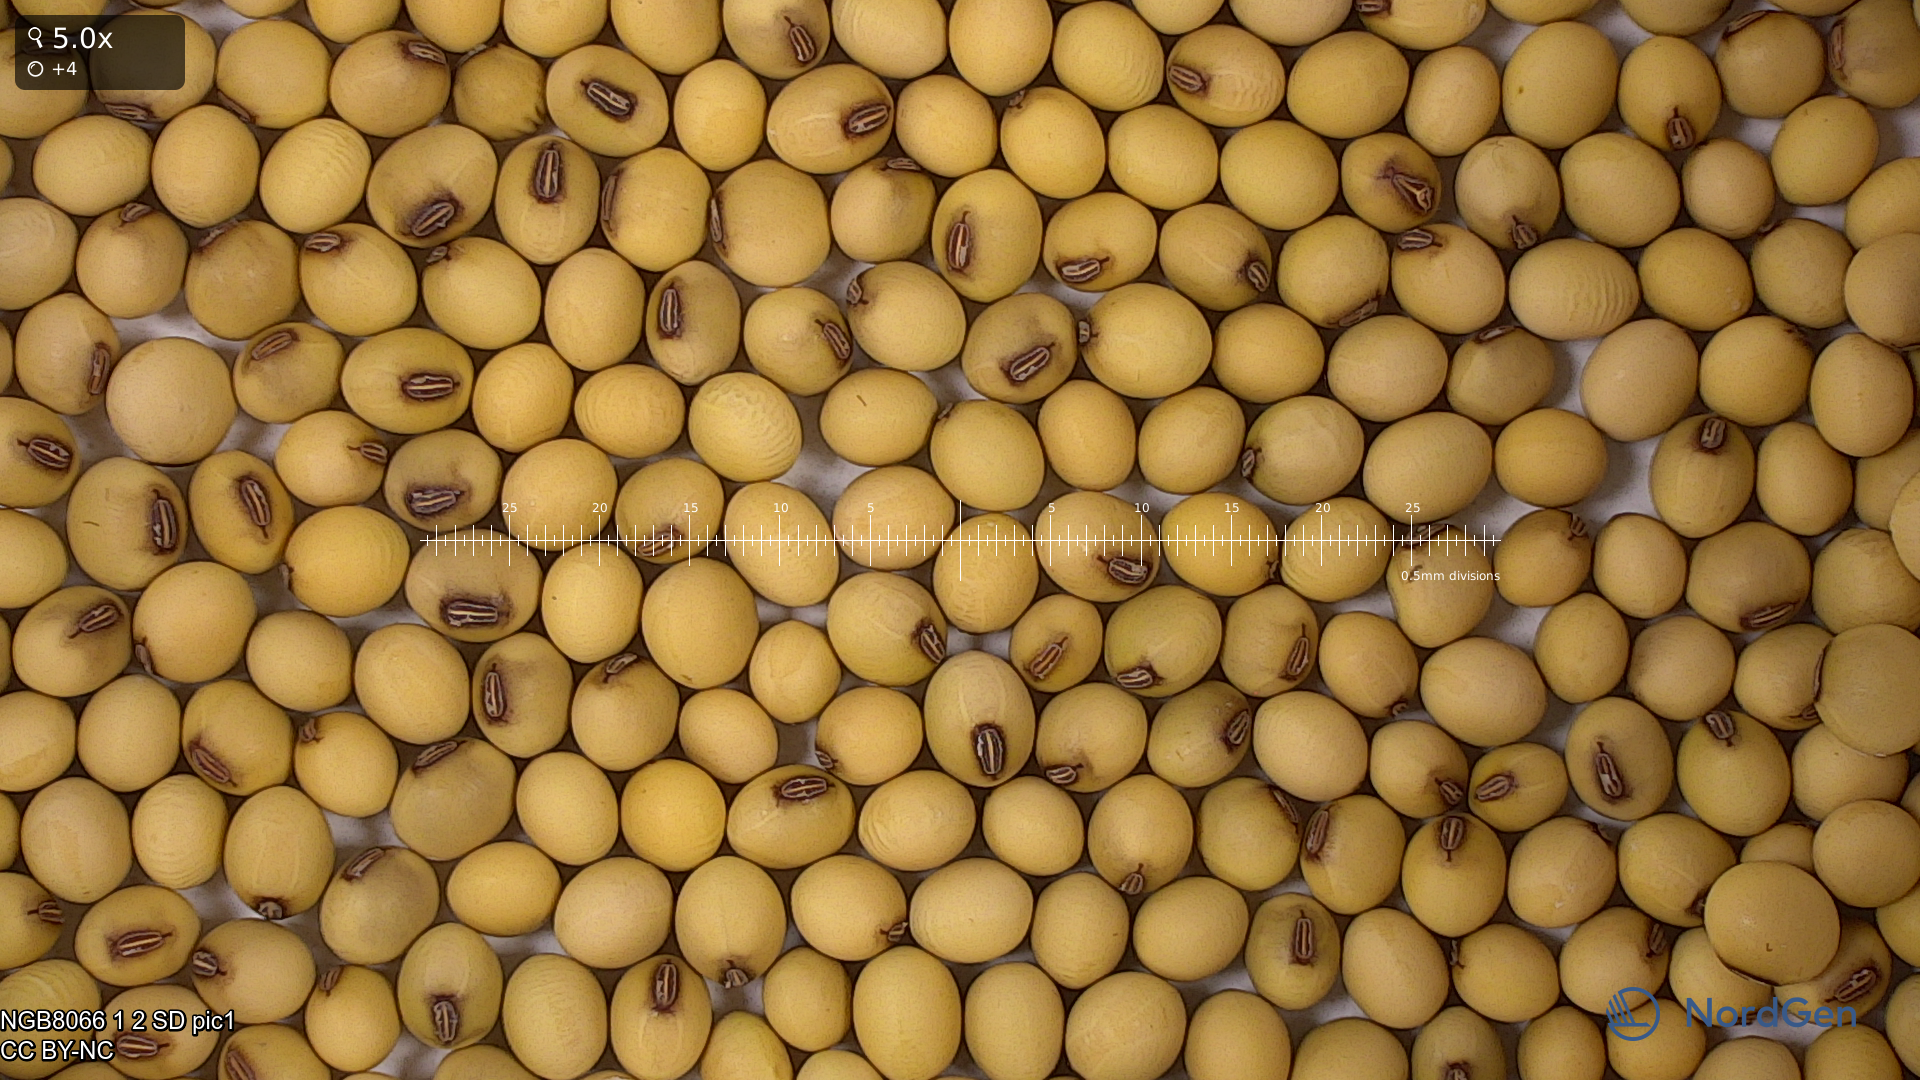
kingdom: Plantae
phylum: Tracheophyta
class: Magnoliopsida
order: Fabales
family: Fabaceae
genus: Glycine
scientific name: Glycine max
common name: Soya-bean
